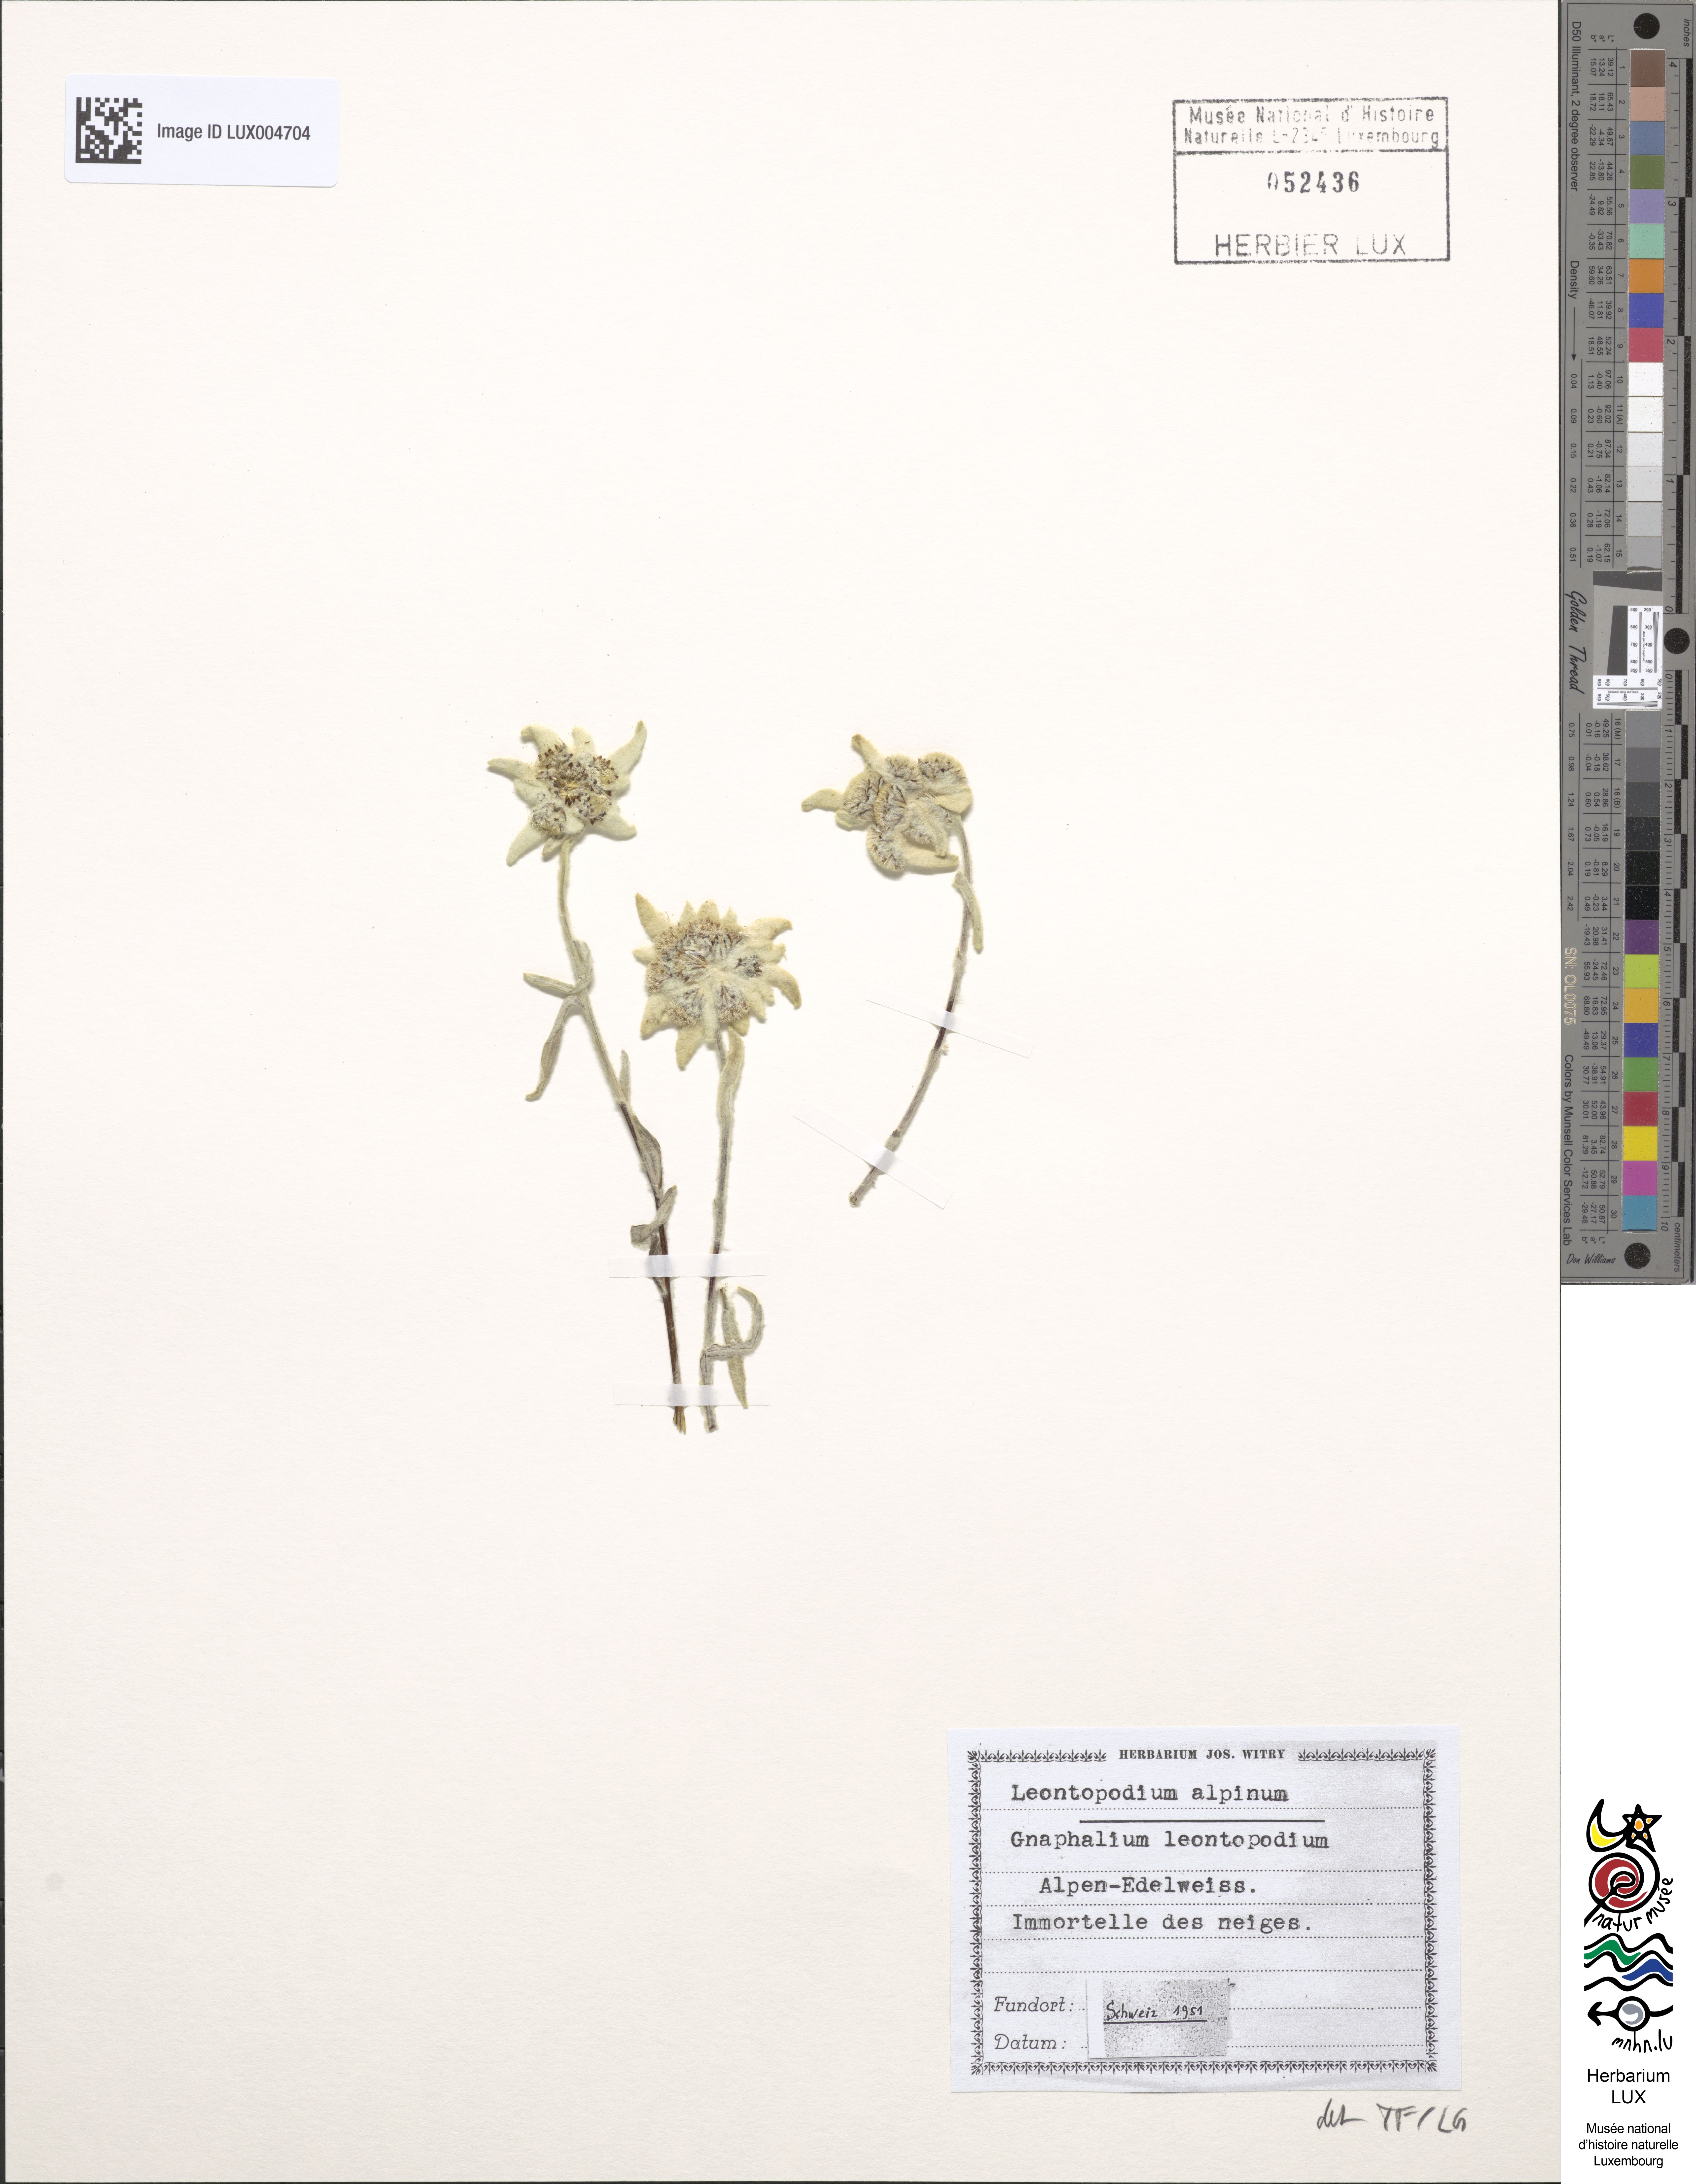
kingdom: Plantae
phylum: Tracheophyta
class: Magnoliopsida
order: Asterales
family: Asteraceae
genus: Leontopodium
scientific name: Leontopodium nivale
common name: Edelweiss
